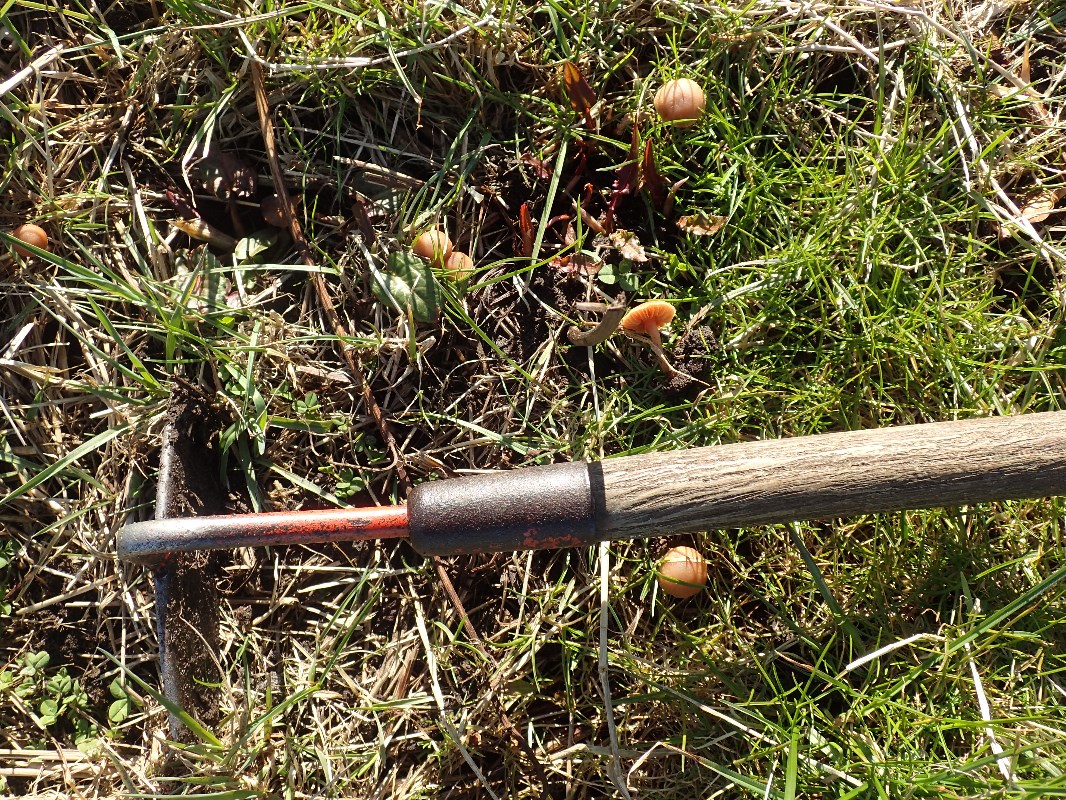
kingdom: Fungi
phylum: Basidiomycota
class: Agaricomycetes
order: Agaricales
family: Tubariaceae
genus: Tubaria
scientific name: Tubaria furfuracea
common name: kliddet fnughat
